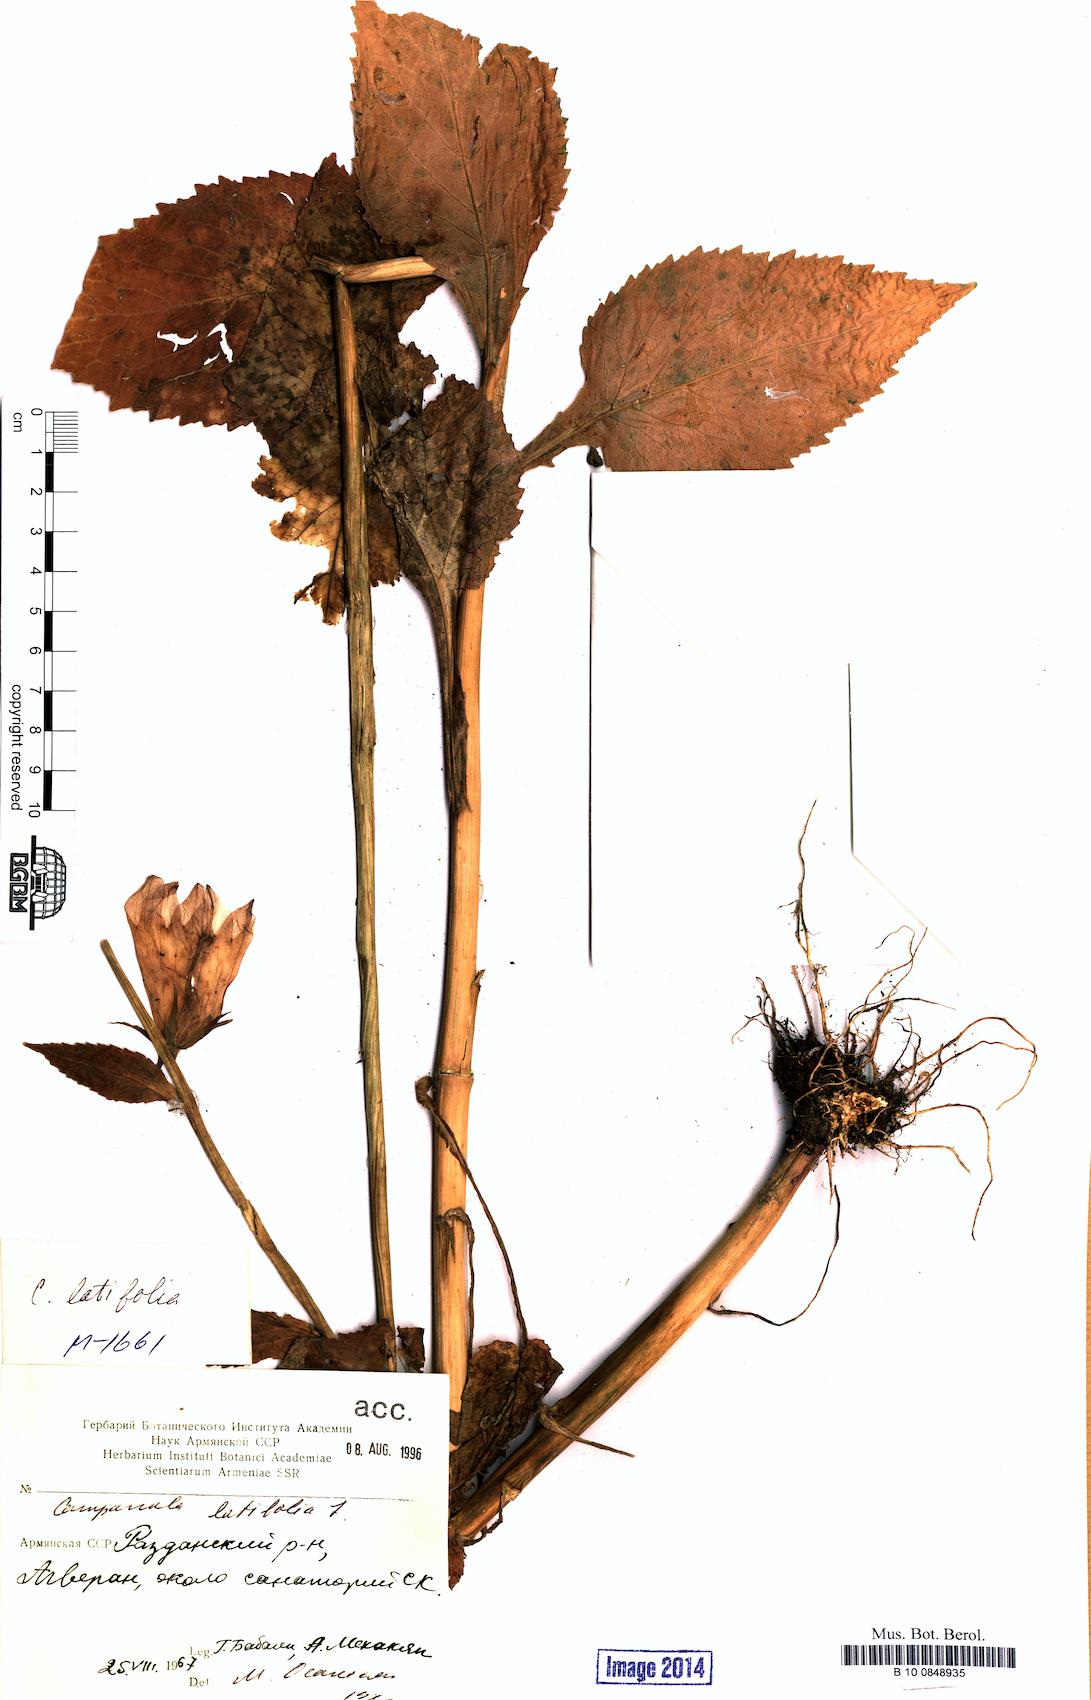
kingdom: Plantae
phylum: Tracheophyta
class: Magnoliopsida
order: Asterales
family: Campanulaceae
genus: Campanula
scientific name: Campanula latifolia
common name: Giant bellflower
